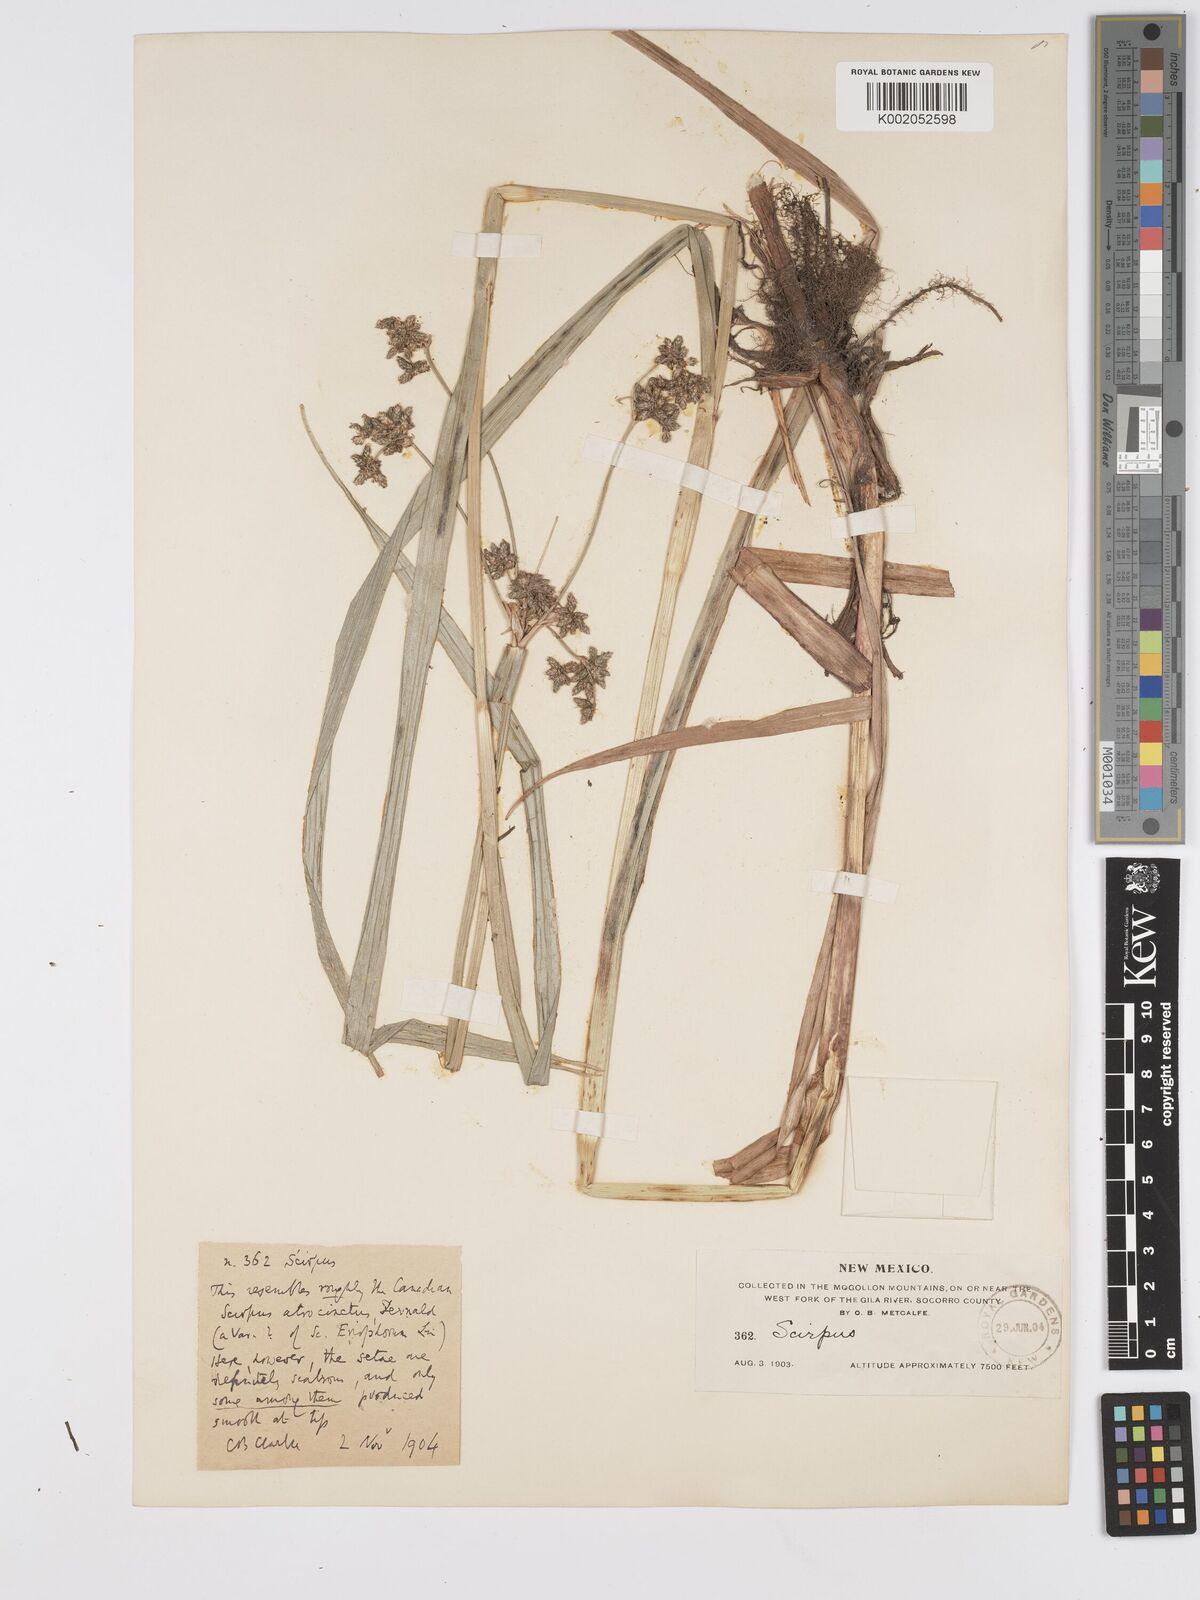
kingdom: Plantae
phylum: Tracheophyta
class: Liliopsida
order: Poales
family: Cyperaceae
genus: Scirpus
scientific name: Scirpus atrocinctus
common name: Black-girdled bulrush
